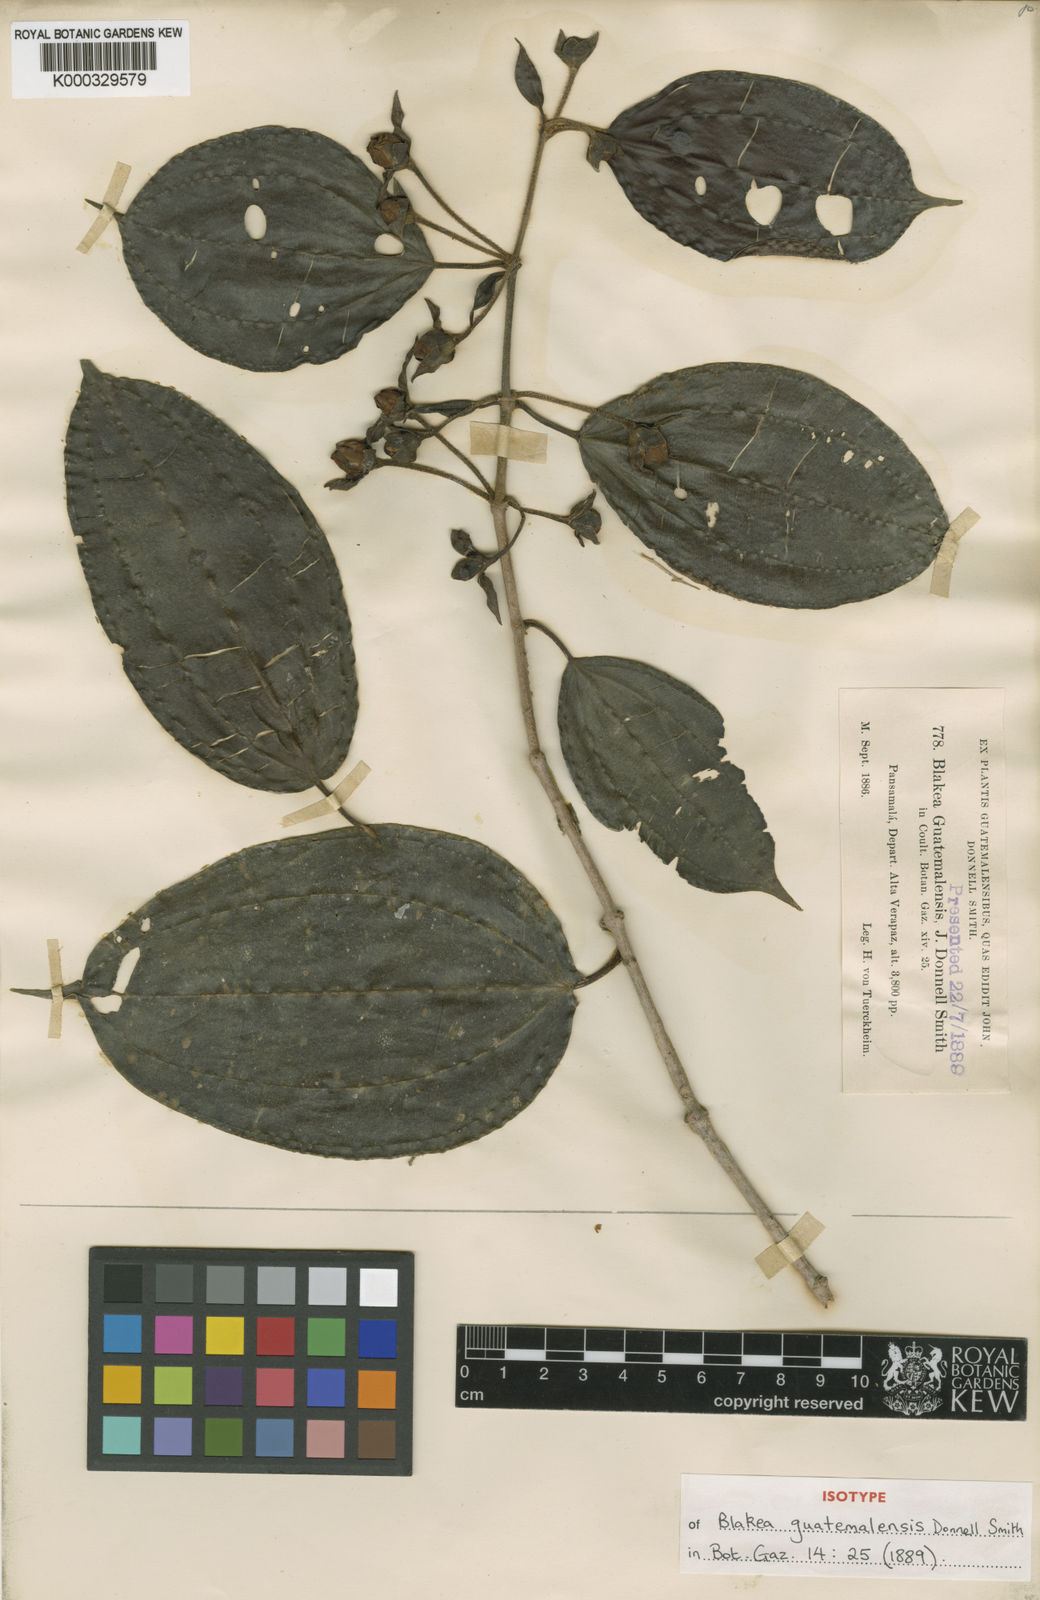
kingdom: Plantae
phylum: Tracheophyta
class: Magnoliopsida
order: Myrtales
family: Melastomataceae
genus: Blakea
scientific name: Blakea guatemalensis
